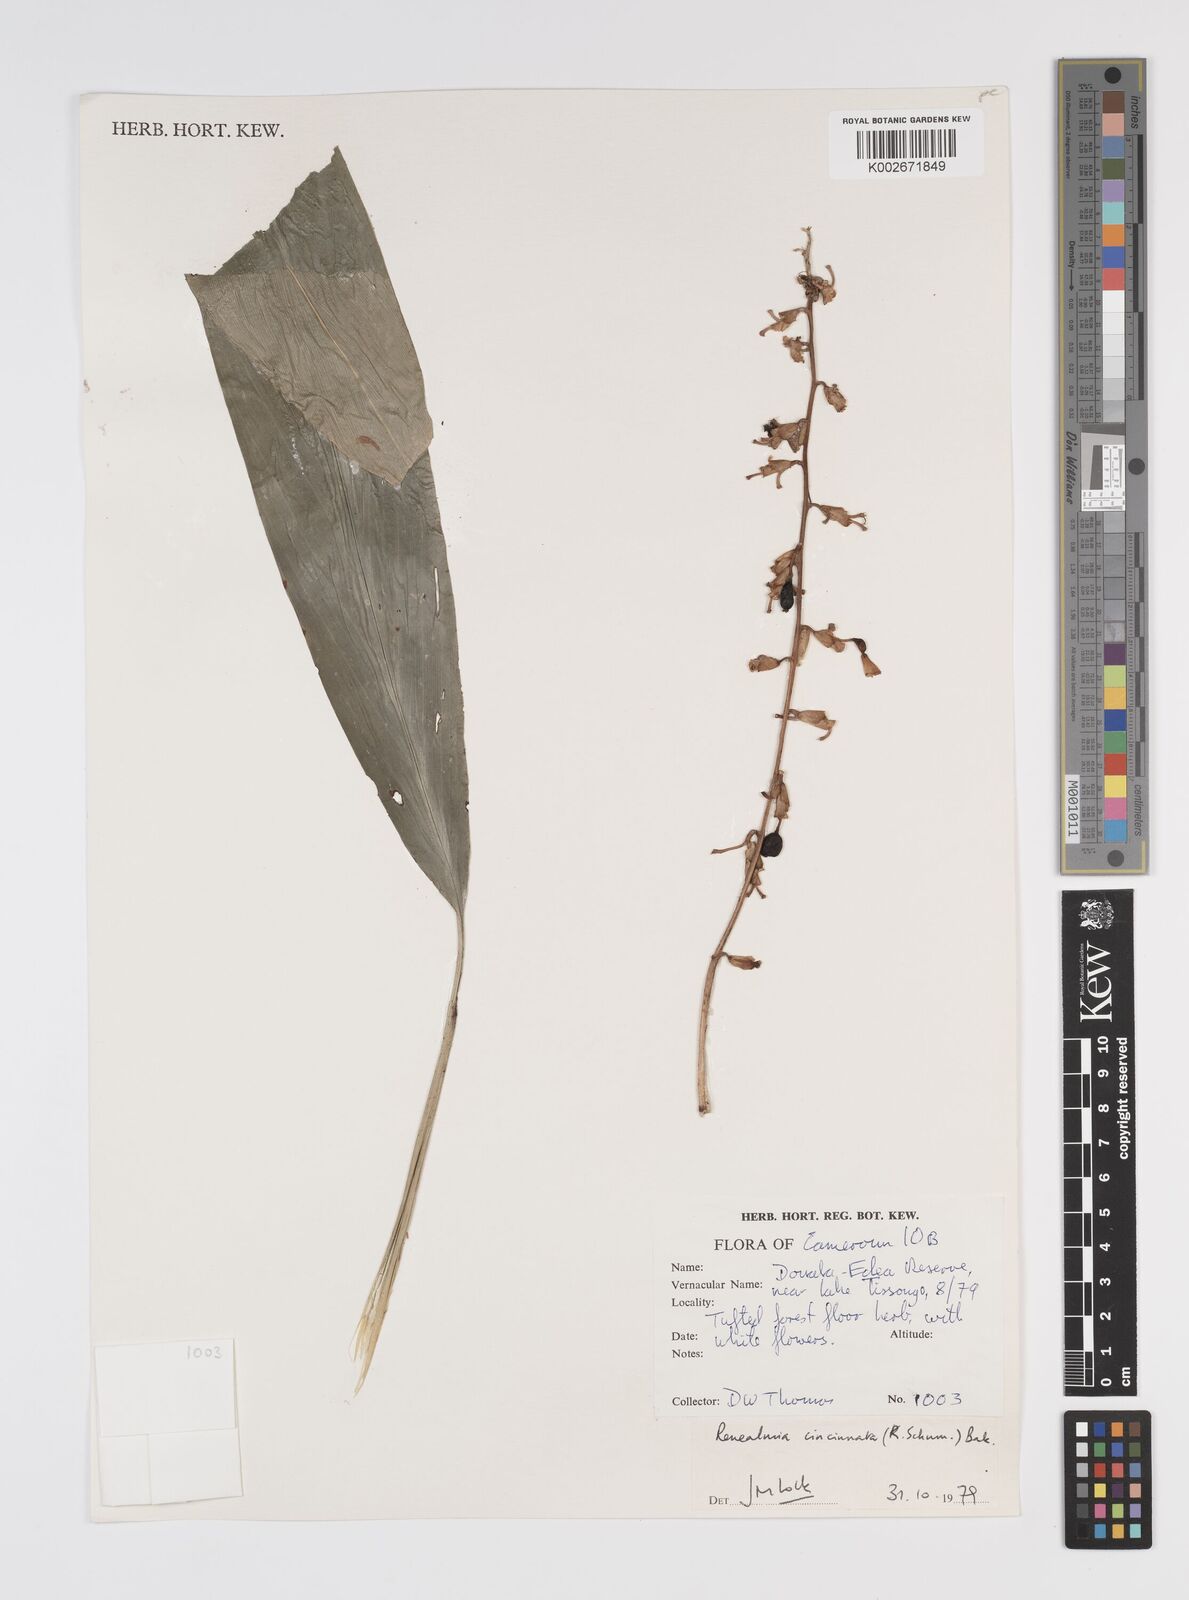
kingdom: Plantae
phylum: Tracheophyta
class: Liliopsida
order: Zingiberales
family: Zingiberaceae
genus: Renealmia
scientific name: Renealmia cincinnata
